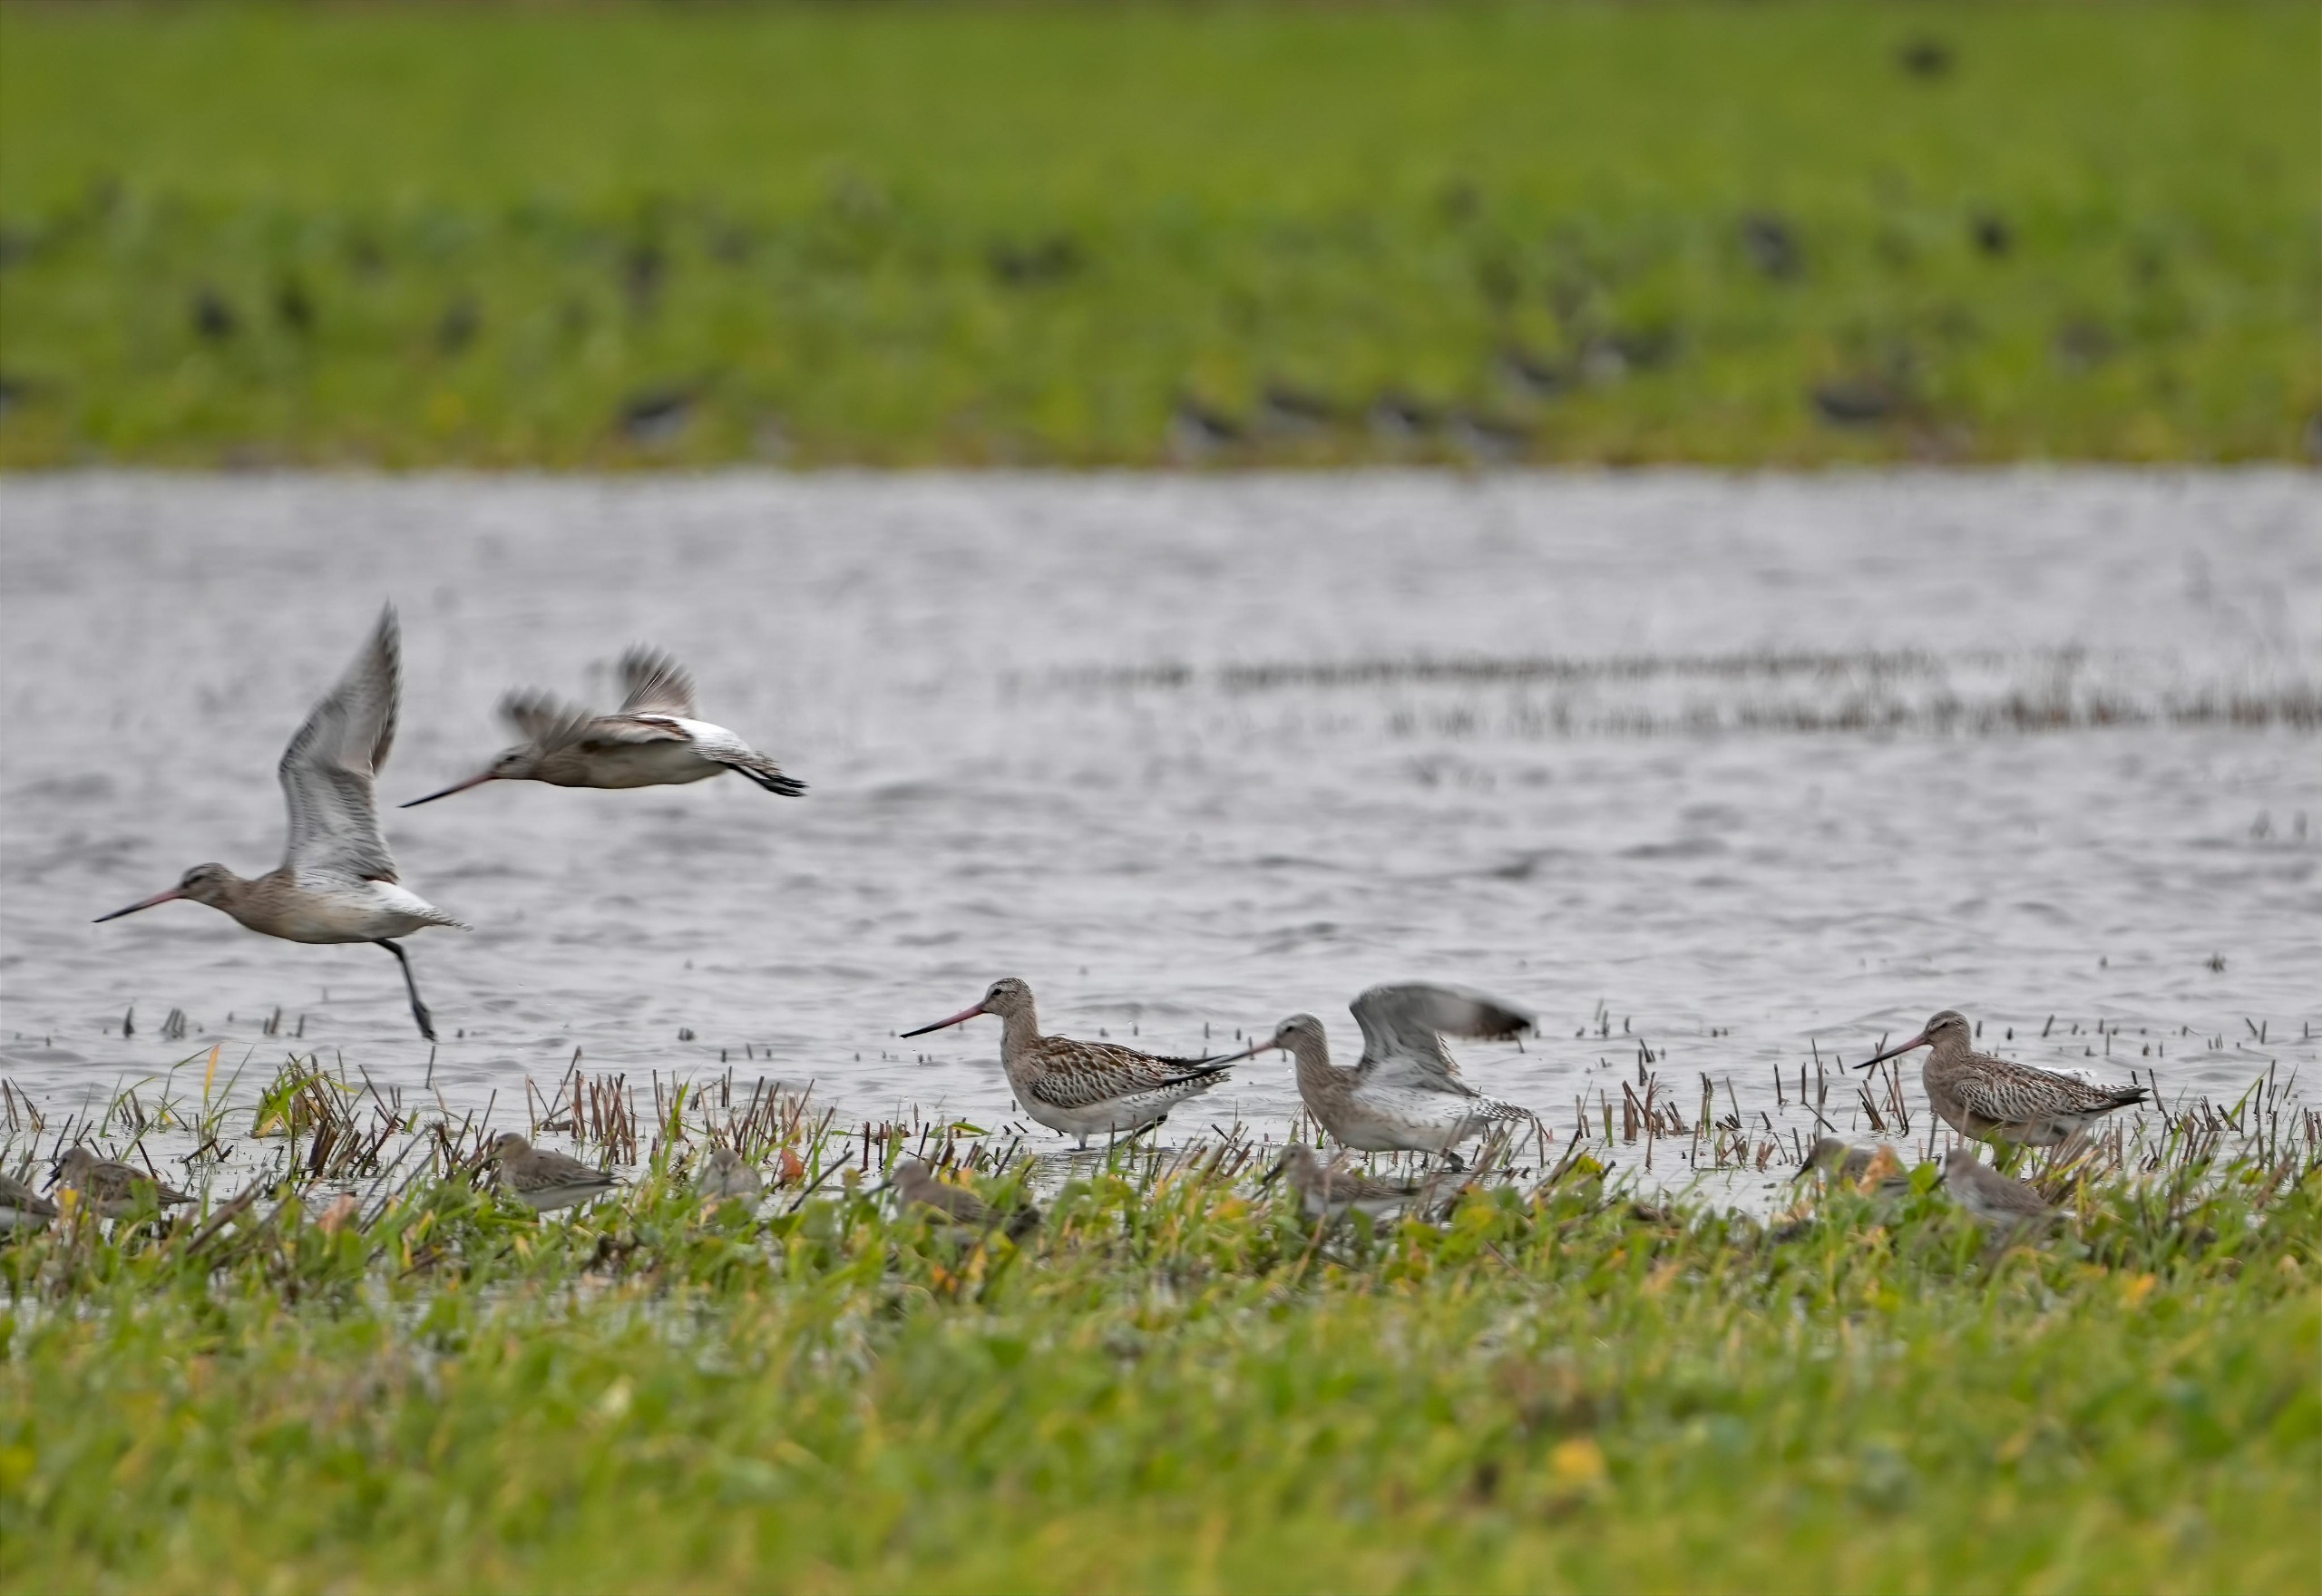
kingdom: Animalia
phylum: Chordata
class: Aves
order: Charadriiformes
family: Scolopacidae
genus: Limosa
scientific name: Limosa lapponica
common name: Lille kobbersneppe
